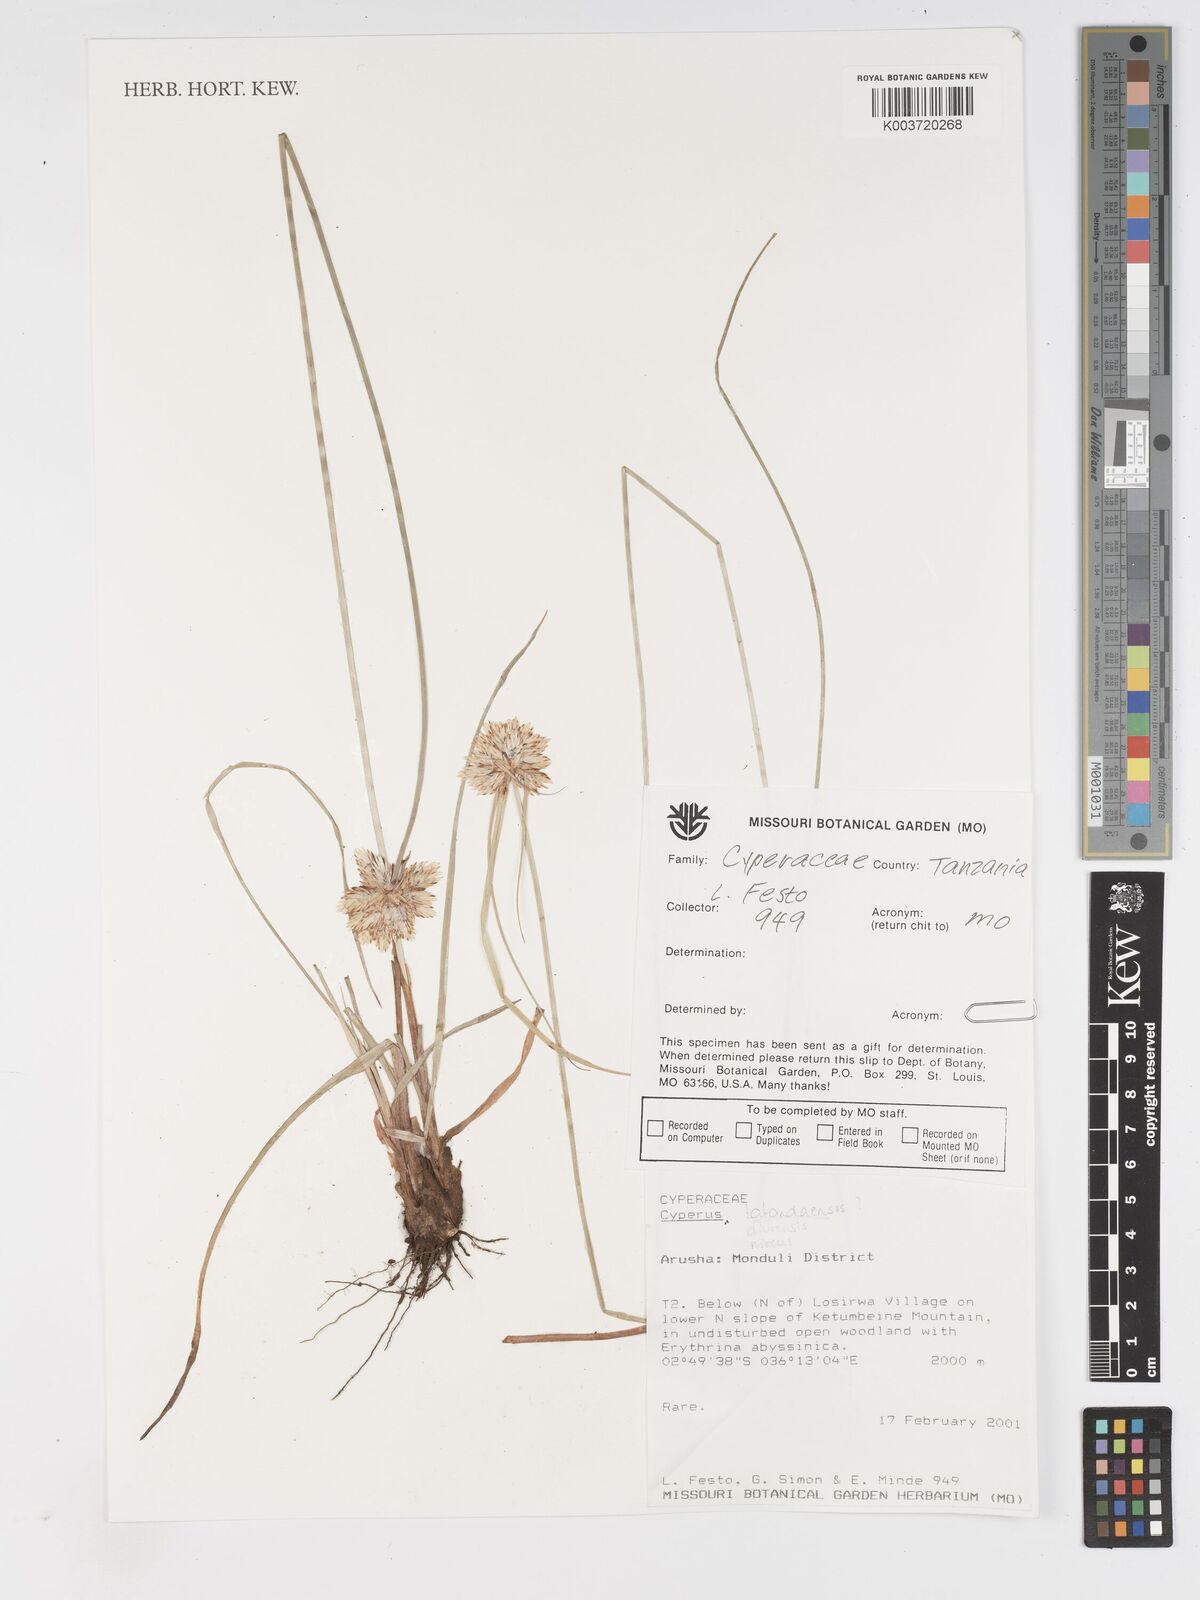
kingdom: Plantae
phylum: Tracheophyta
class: Liliopsida
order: Poales
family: Cyperaceae
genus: Cyperus
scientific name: Cyperus
